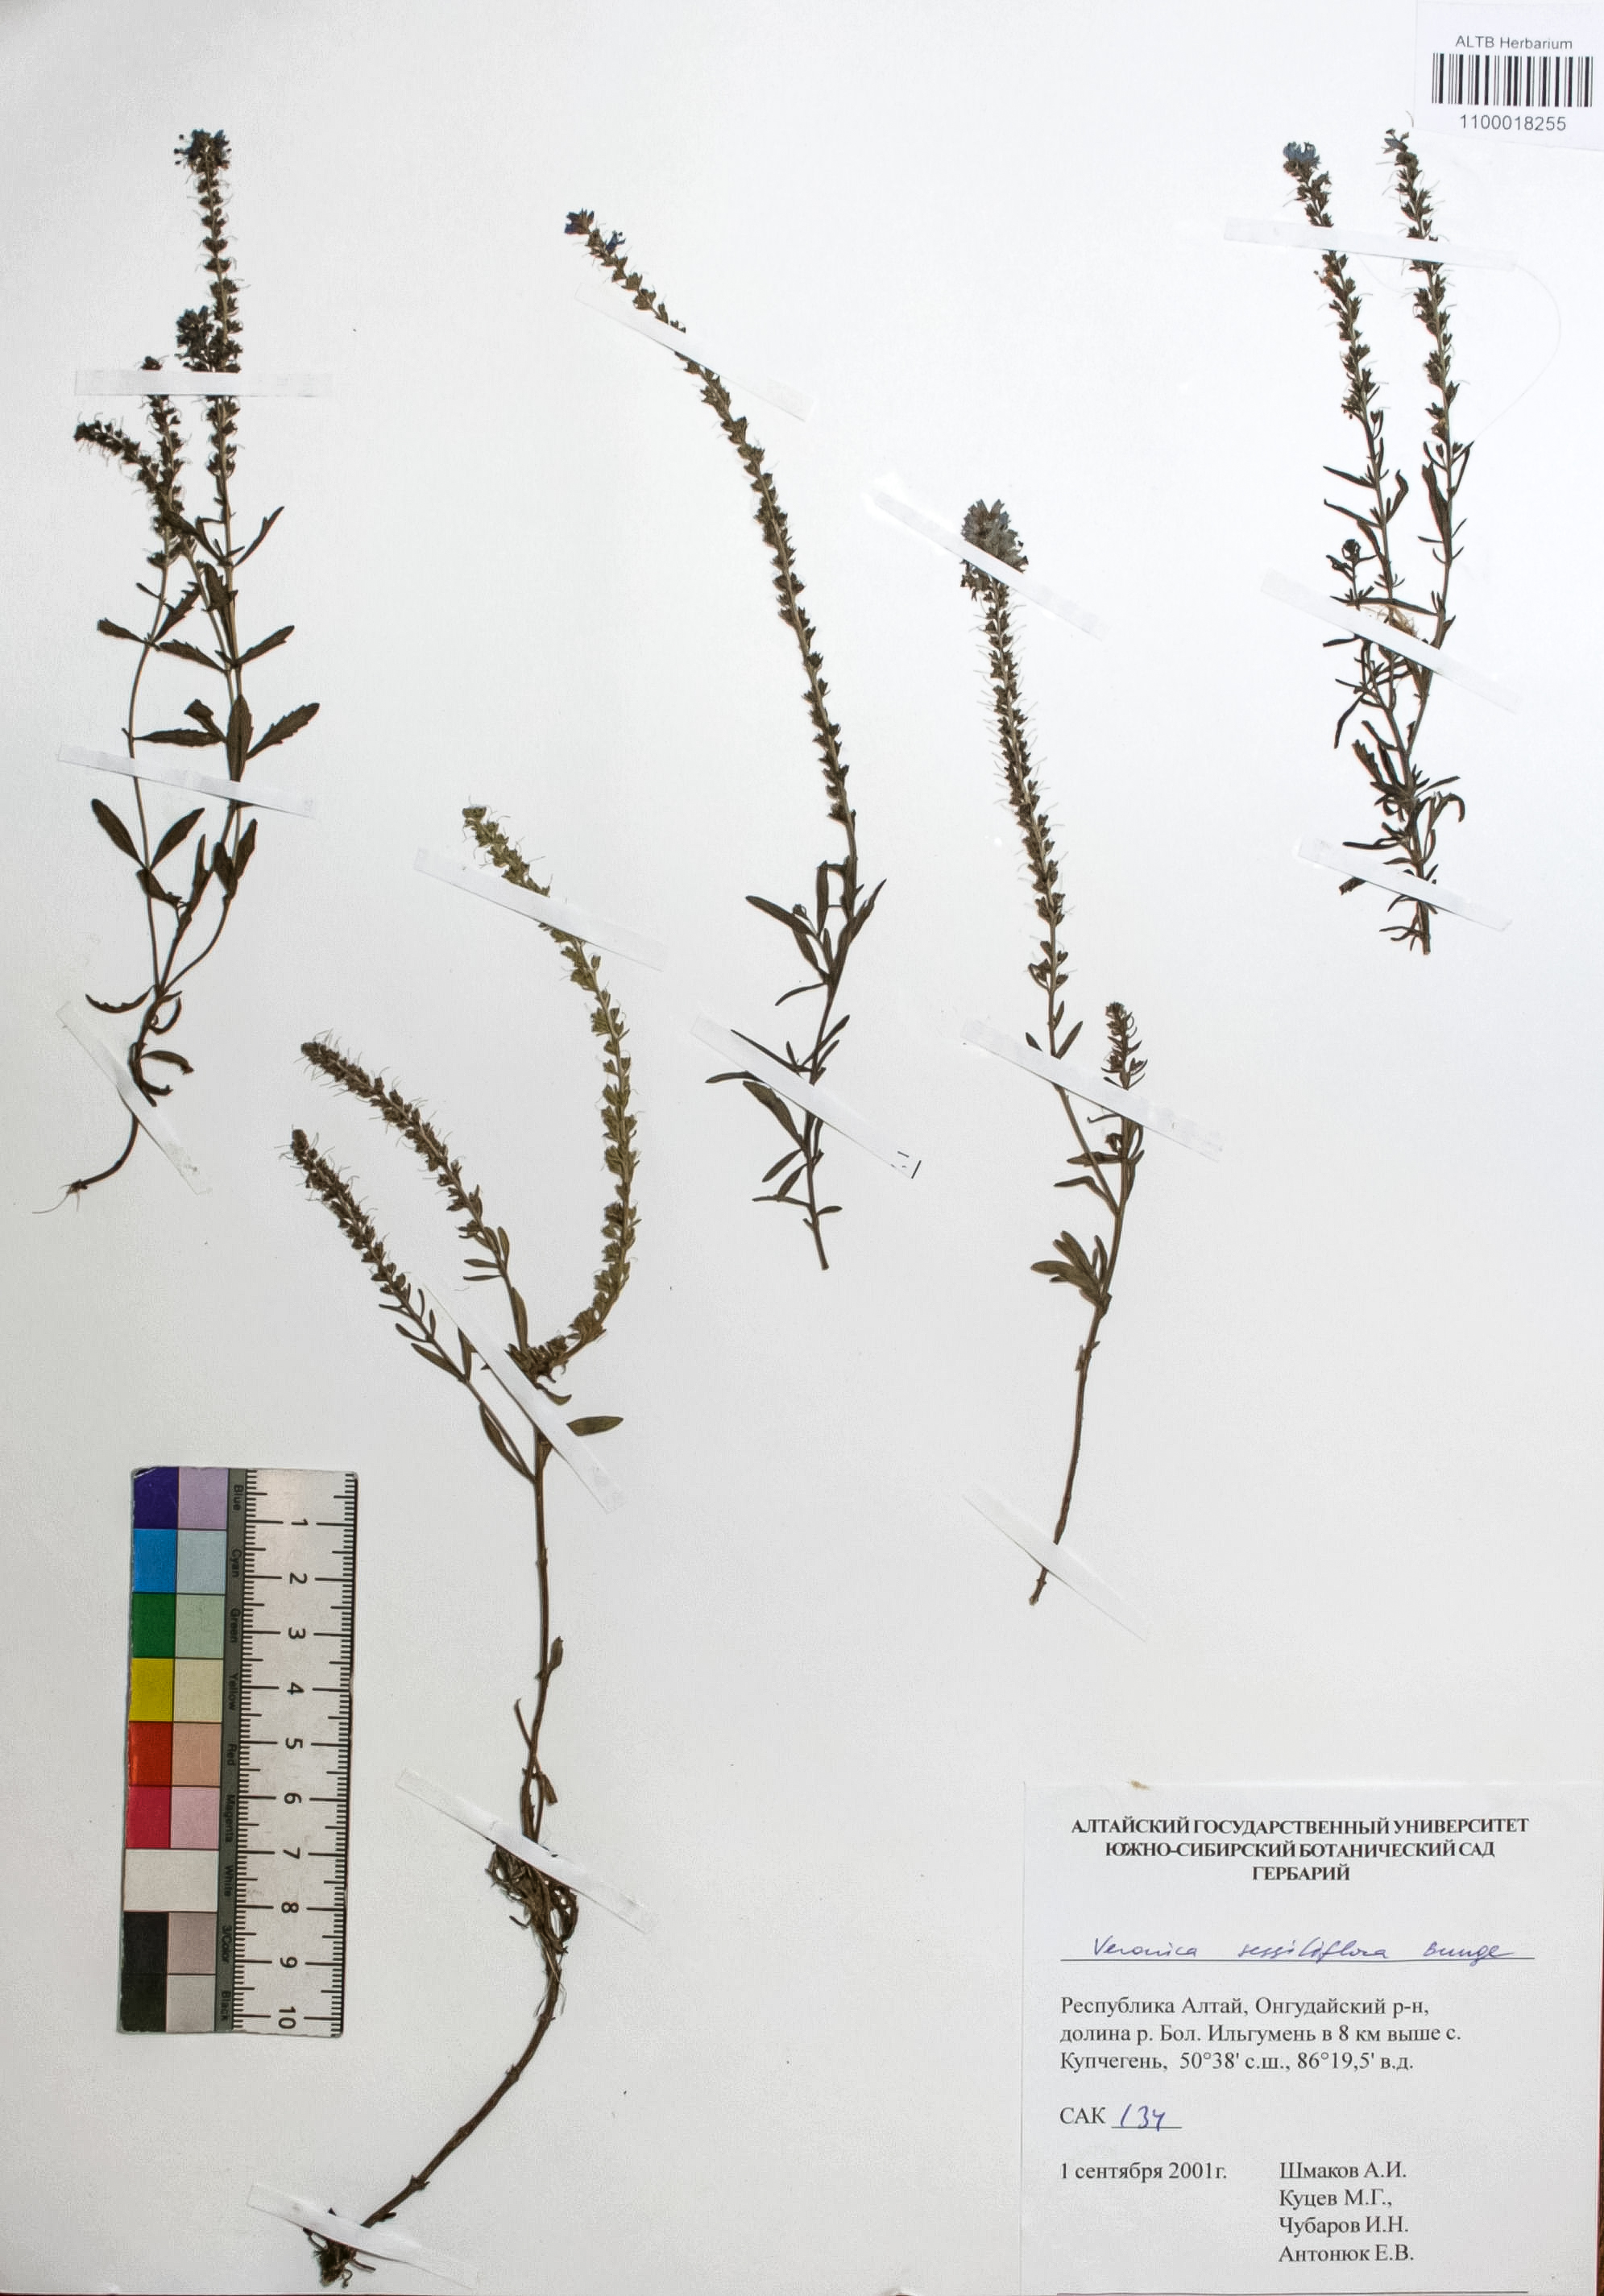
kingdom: Plantae
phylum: Tracheophyta
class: Magnoliopsida
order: Lamiales
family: Plantaginaceae
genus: Veronica
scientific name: Veronica sessiliflora
